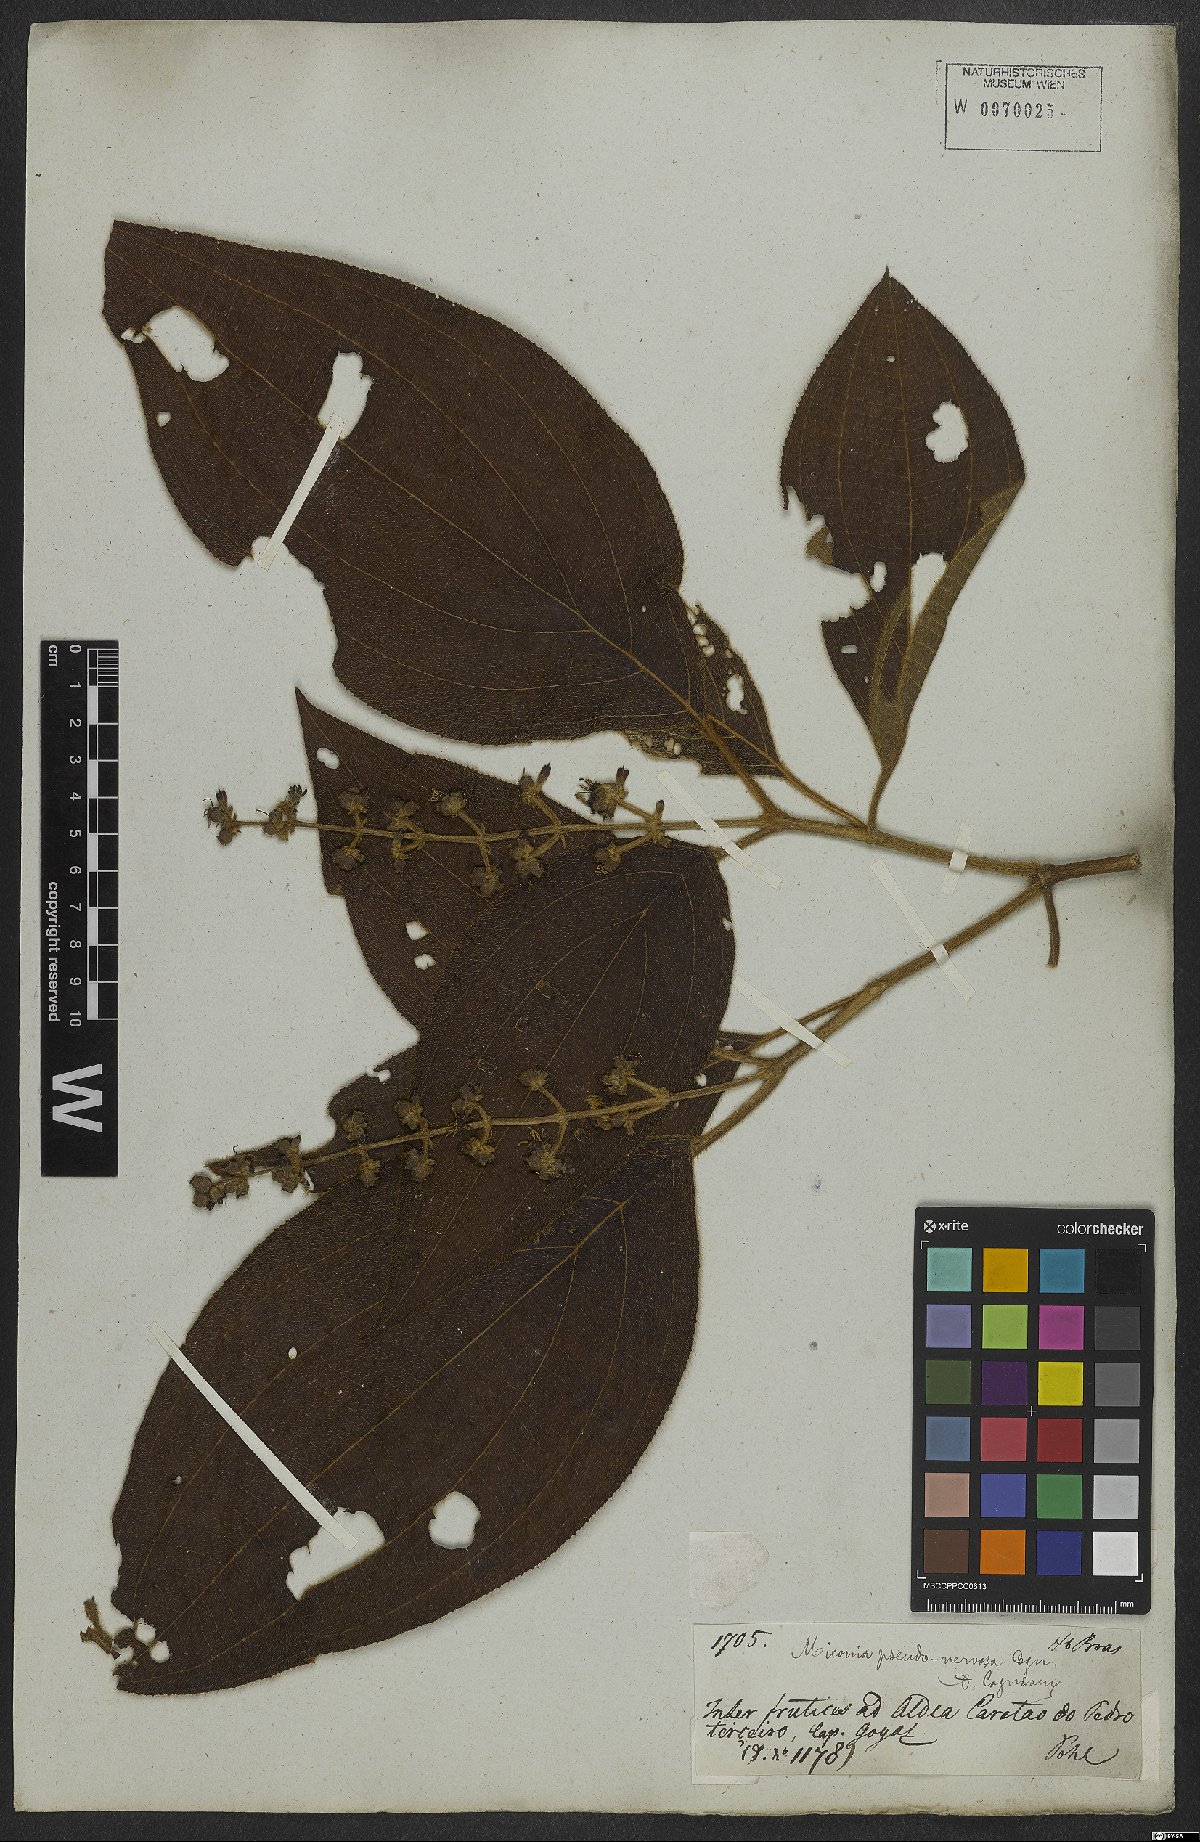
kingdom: Plantae
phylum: Tracheophyta
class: Magnoliopsida
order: Myrtales
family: Melastomataceae
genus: Miconia
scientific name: Miconia pseudonervosa
